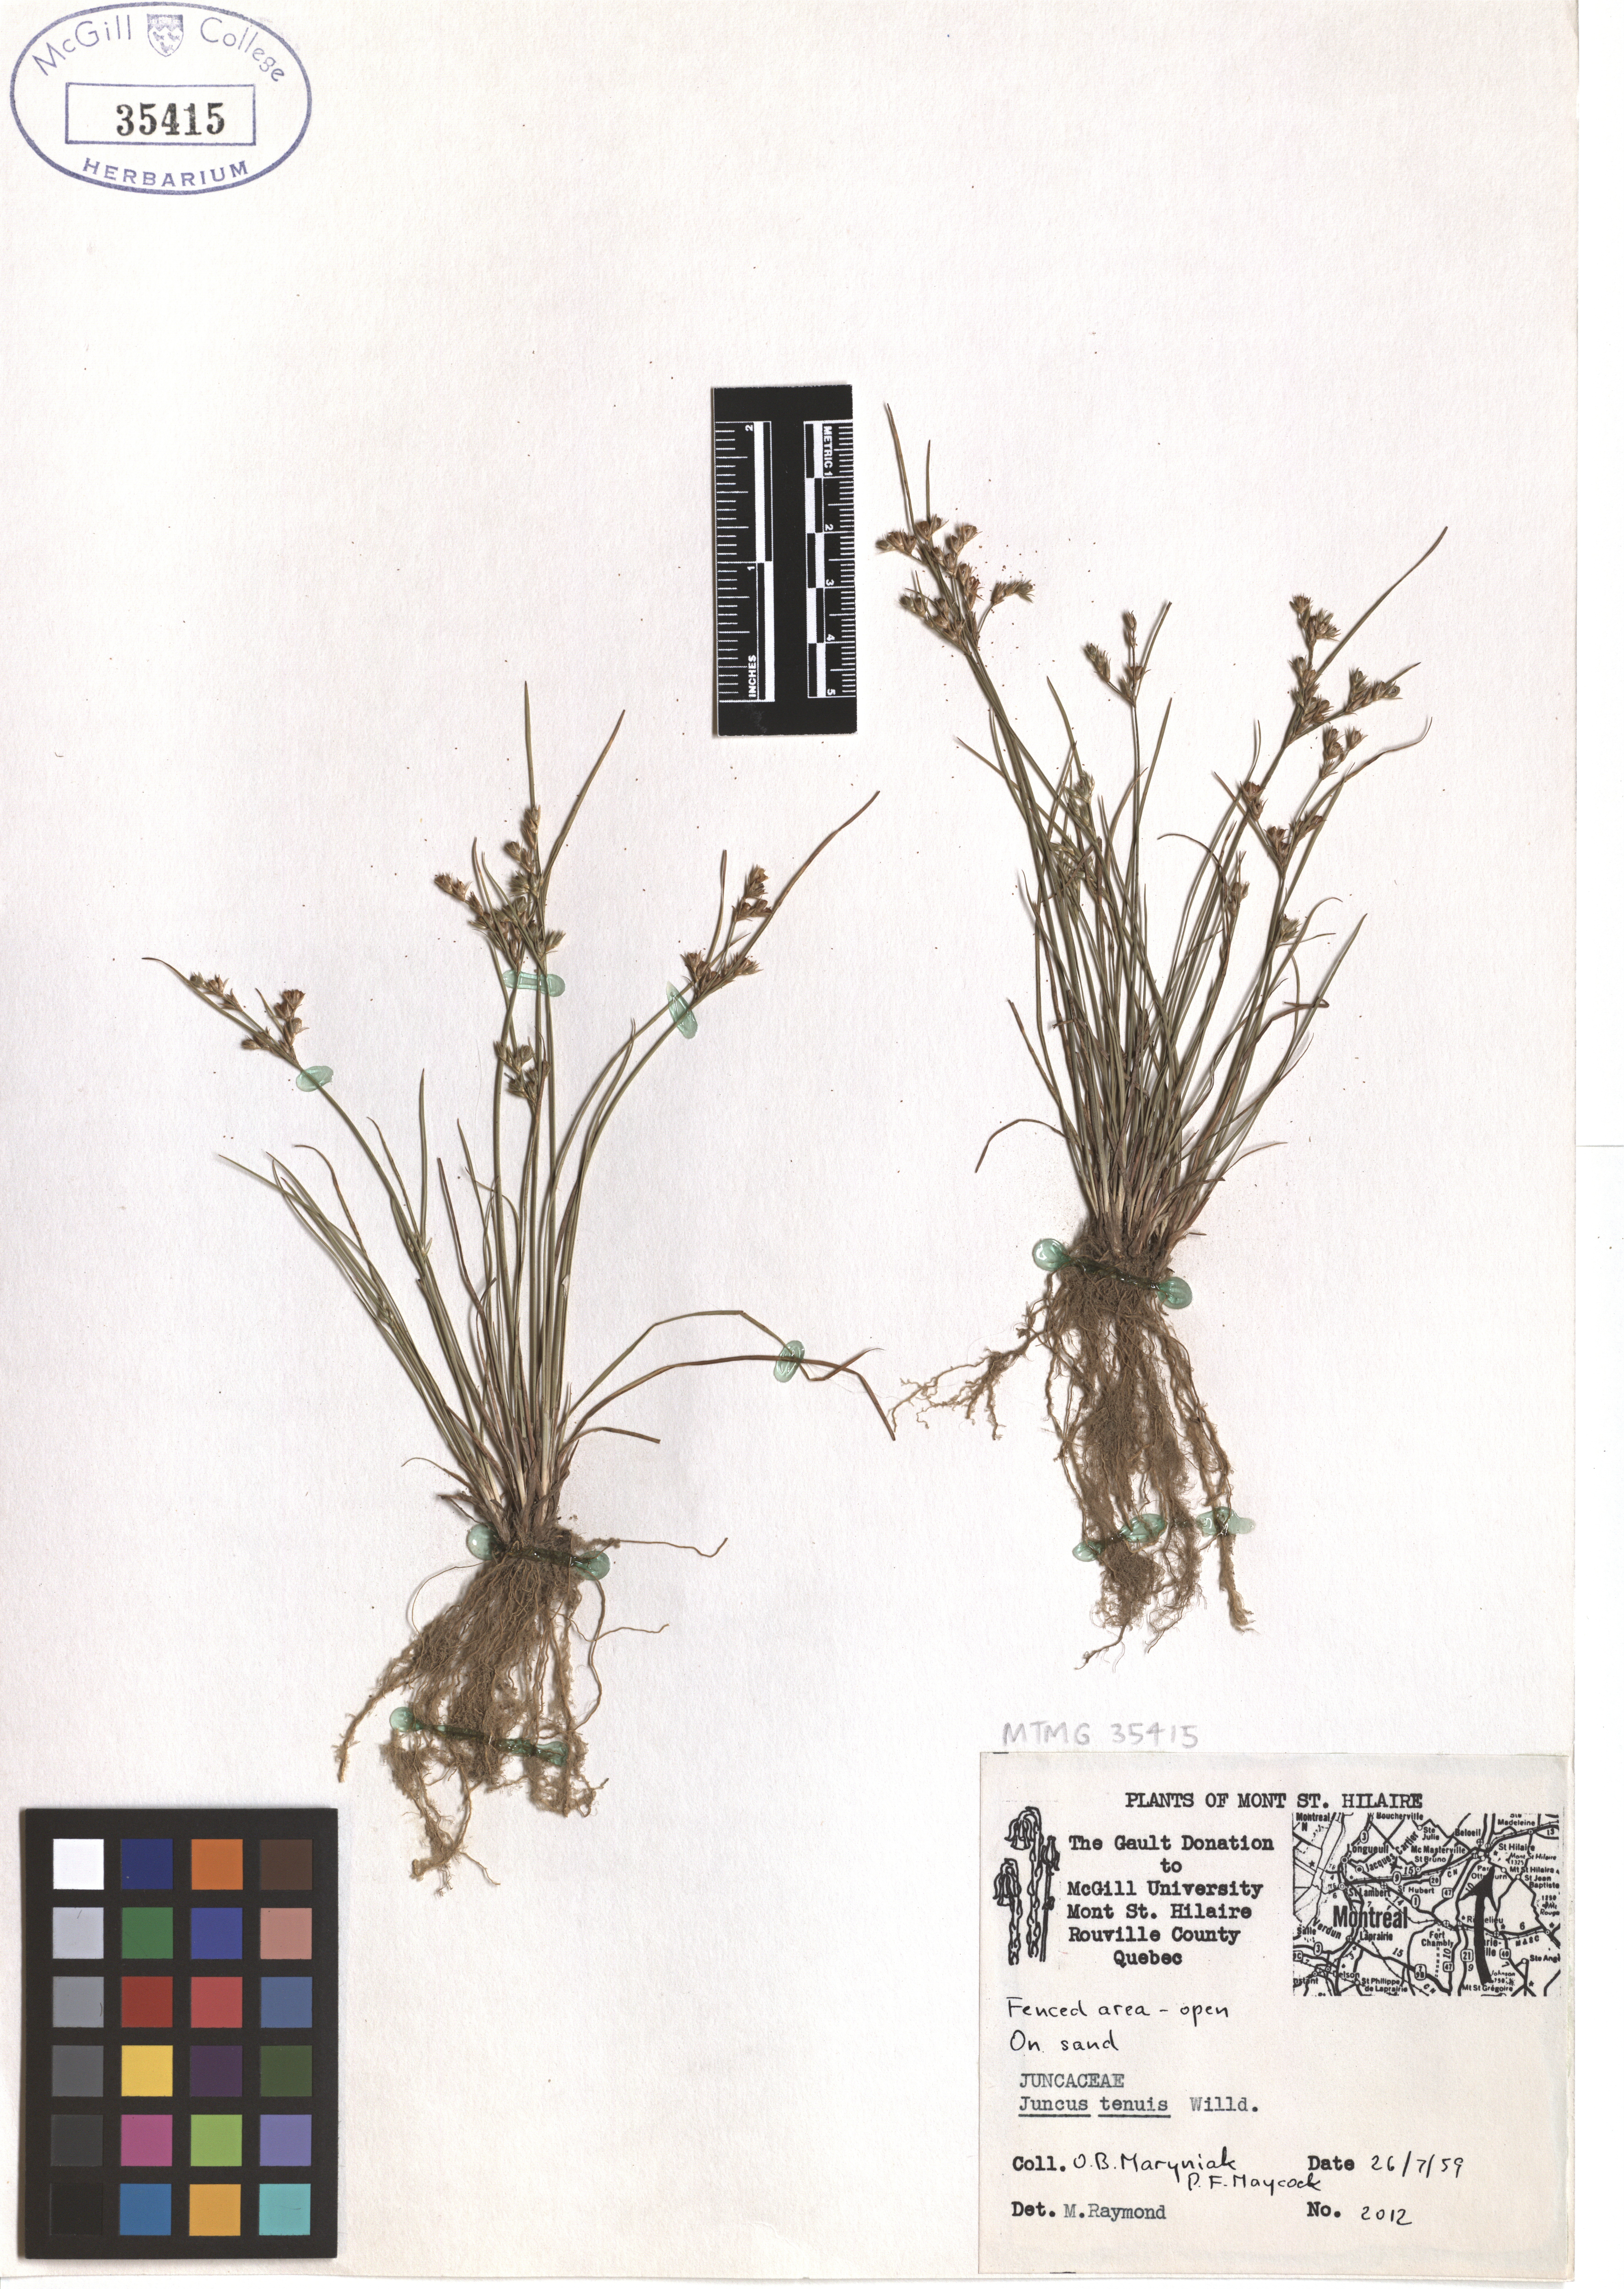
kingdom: Plantae
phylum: Tracheophyta
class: Liliopsida
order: Poales
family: Juncaceae
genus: Juncus
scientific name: Juncus tenuis
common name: Slender rush
